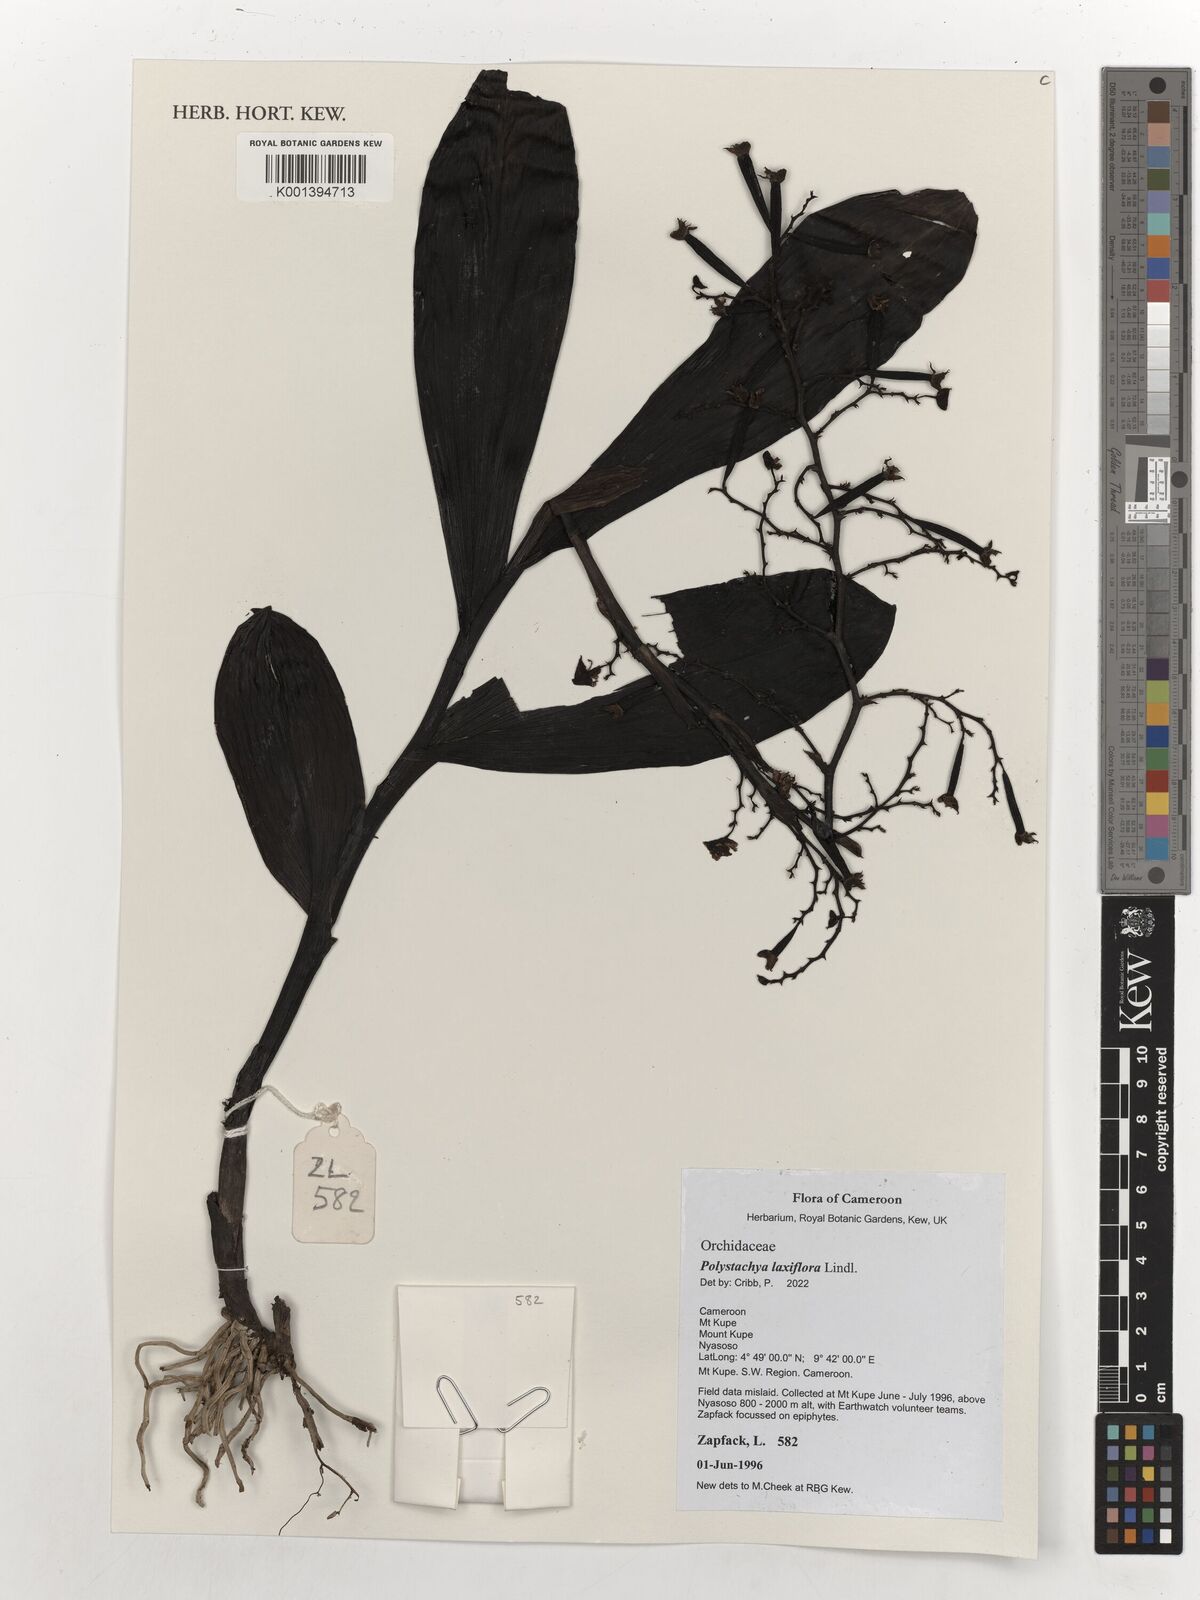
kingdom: Plantae
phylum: Tracheophyta
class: Liliopsida
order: Asparagales
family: Orchidaceae
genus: Polystachya
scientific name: Polystachya laxiflora
